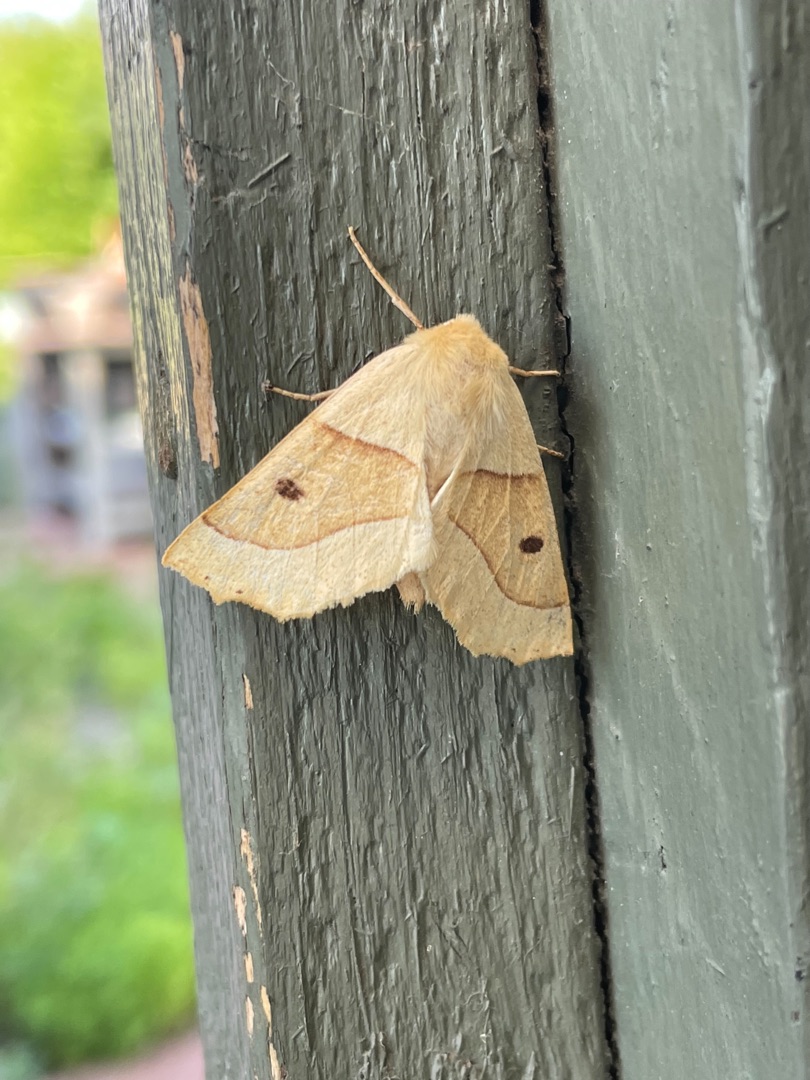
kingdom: Animalia
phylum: Arthropoda
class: Insecta
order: Lepidoptera
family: Geometridae
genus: Crocallis
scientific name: Crocallis elinguaria
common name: Okkergul rovmåler
